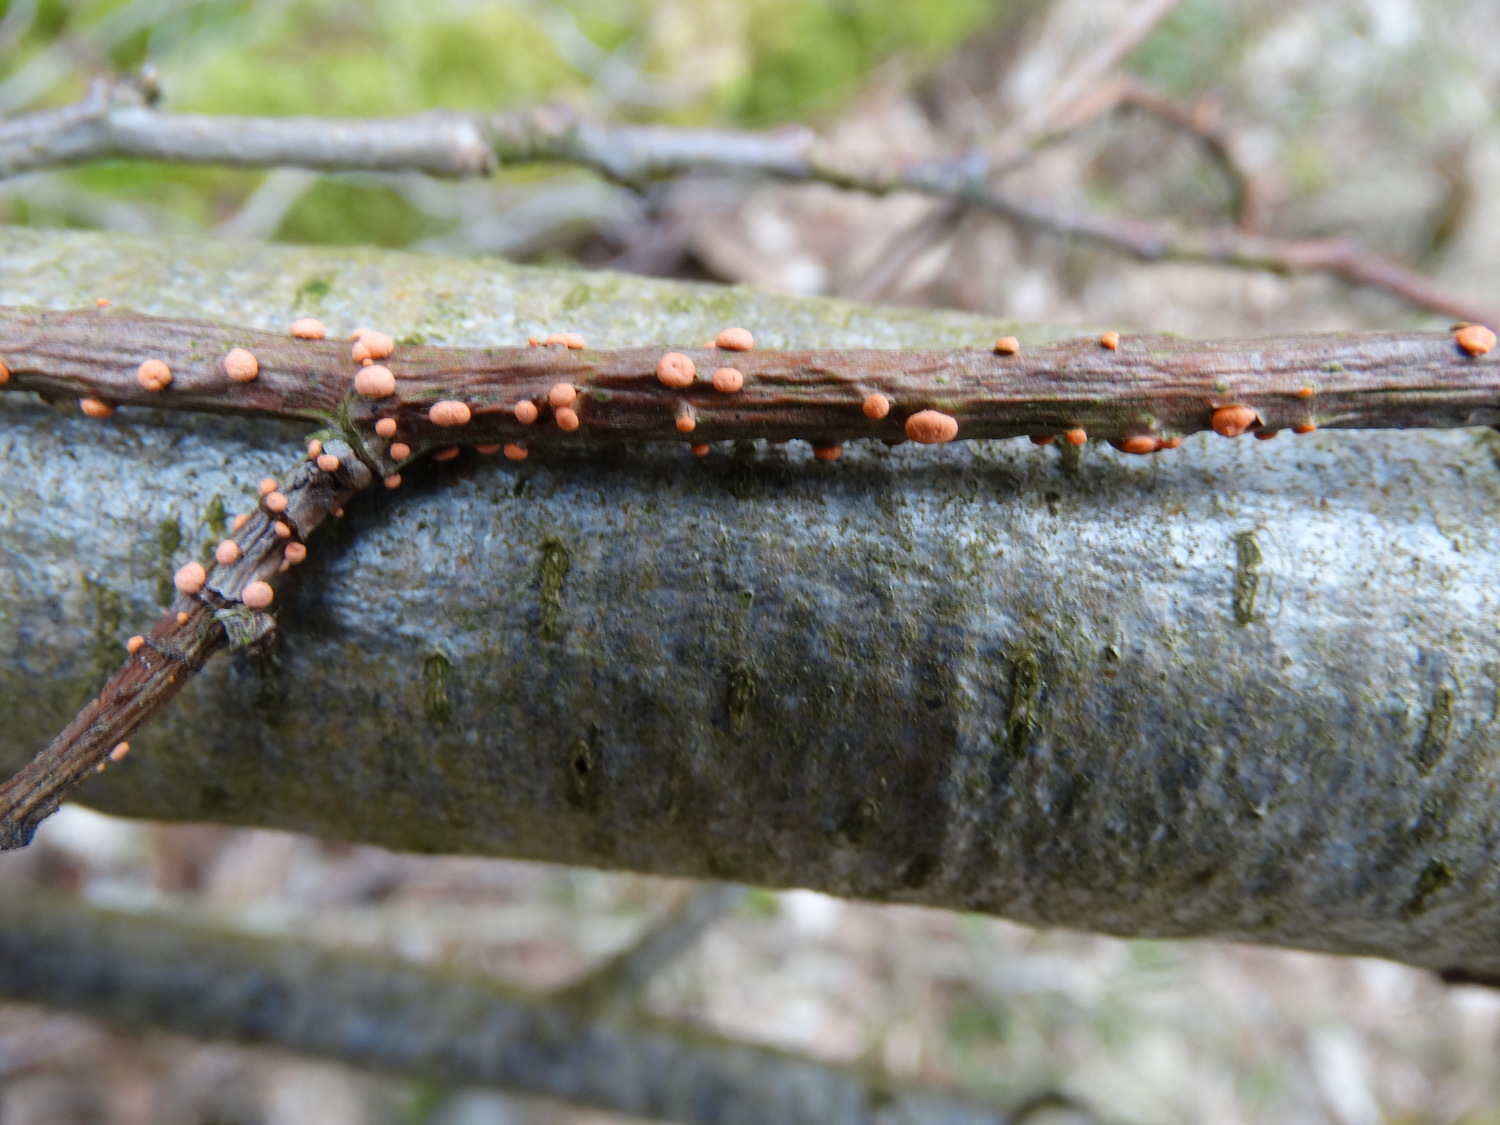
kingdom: Fungi
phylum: Ascomycota
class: Sordariomycetes
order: Hypocreales
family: Nectriaceae
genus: Nectria
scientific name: Nectria cinnabarina
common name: almindelig cinnobersvamp
